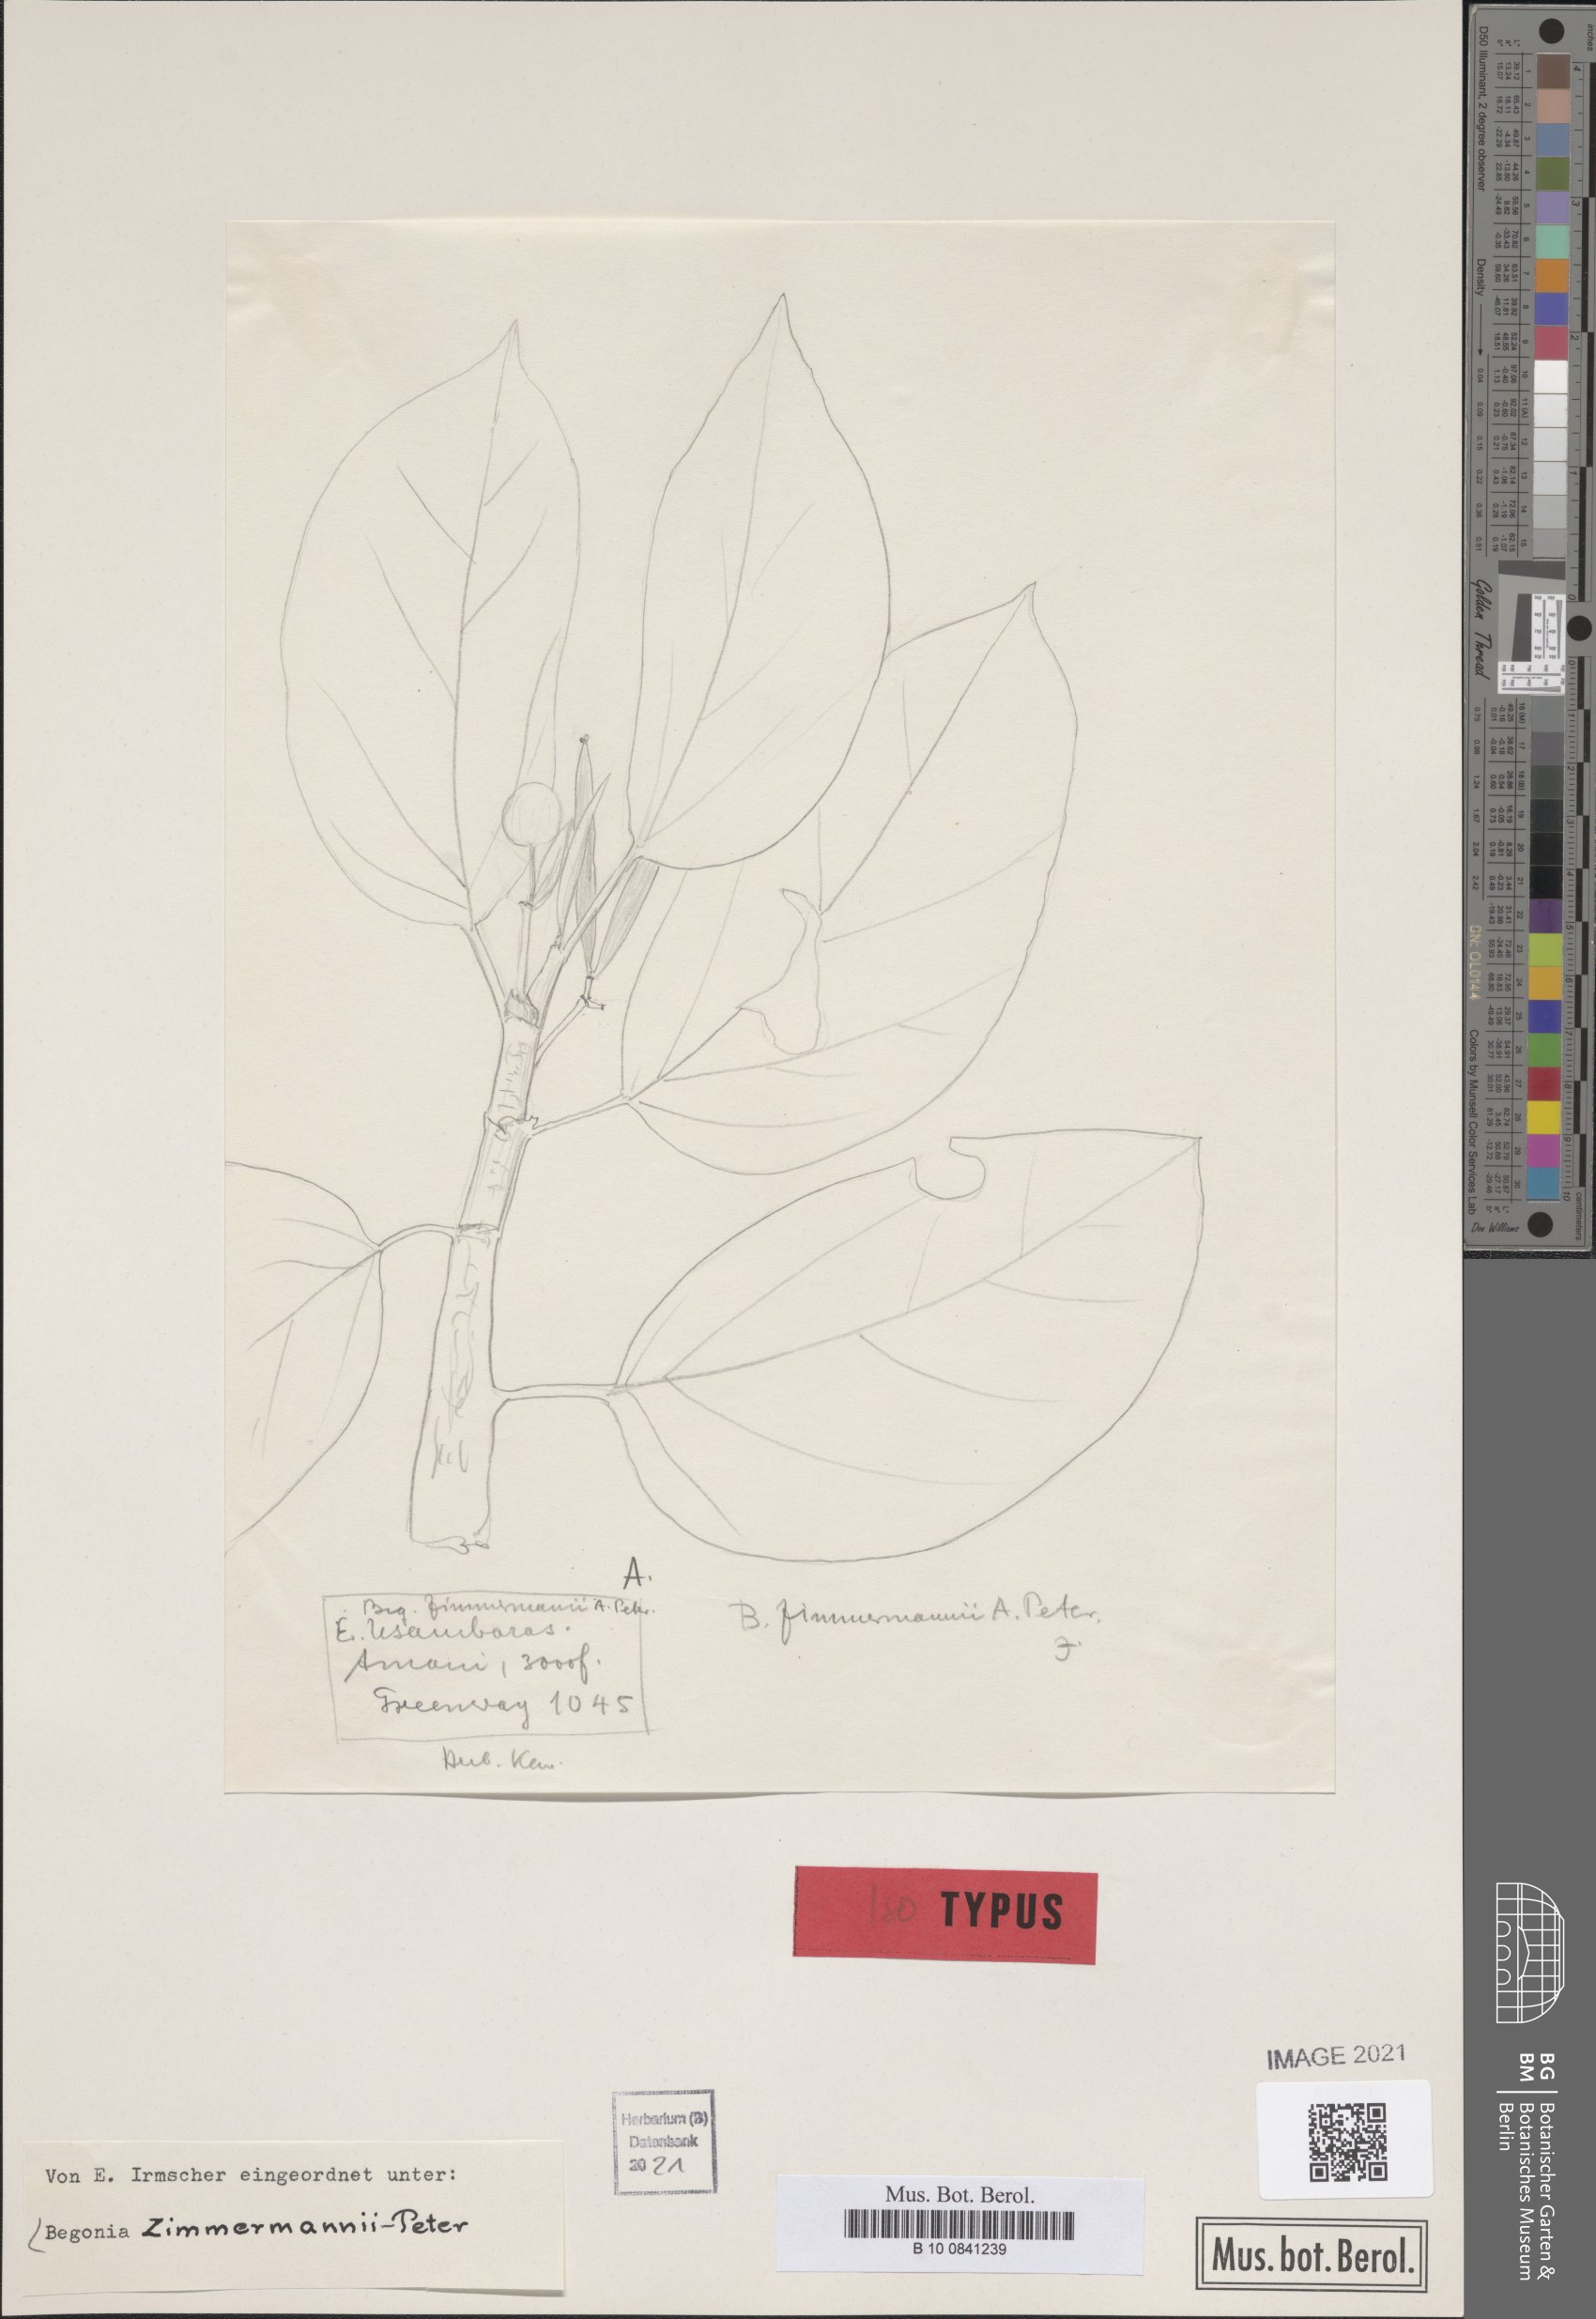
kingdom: Plantae
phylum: Tracheophyta
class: Magnoliopsida
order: Cucurbitales
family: Begoniaceae
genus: Begonia
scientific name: Begonia zimmermannii
